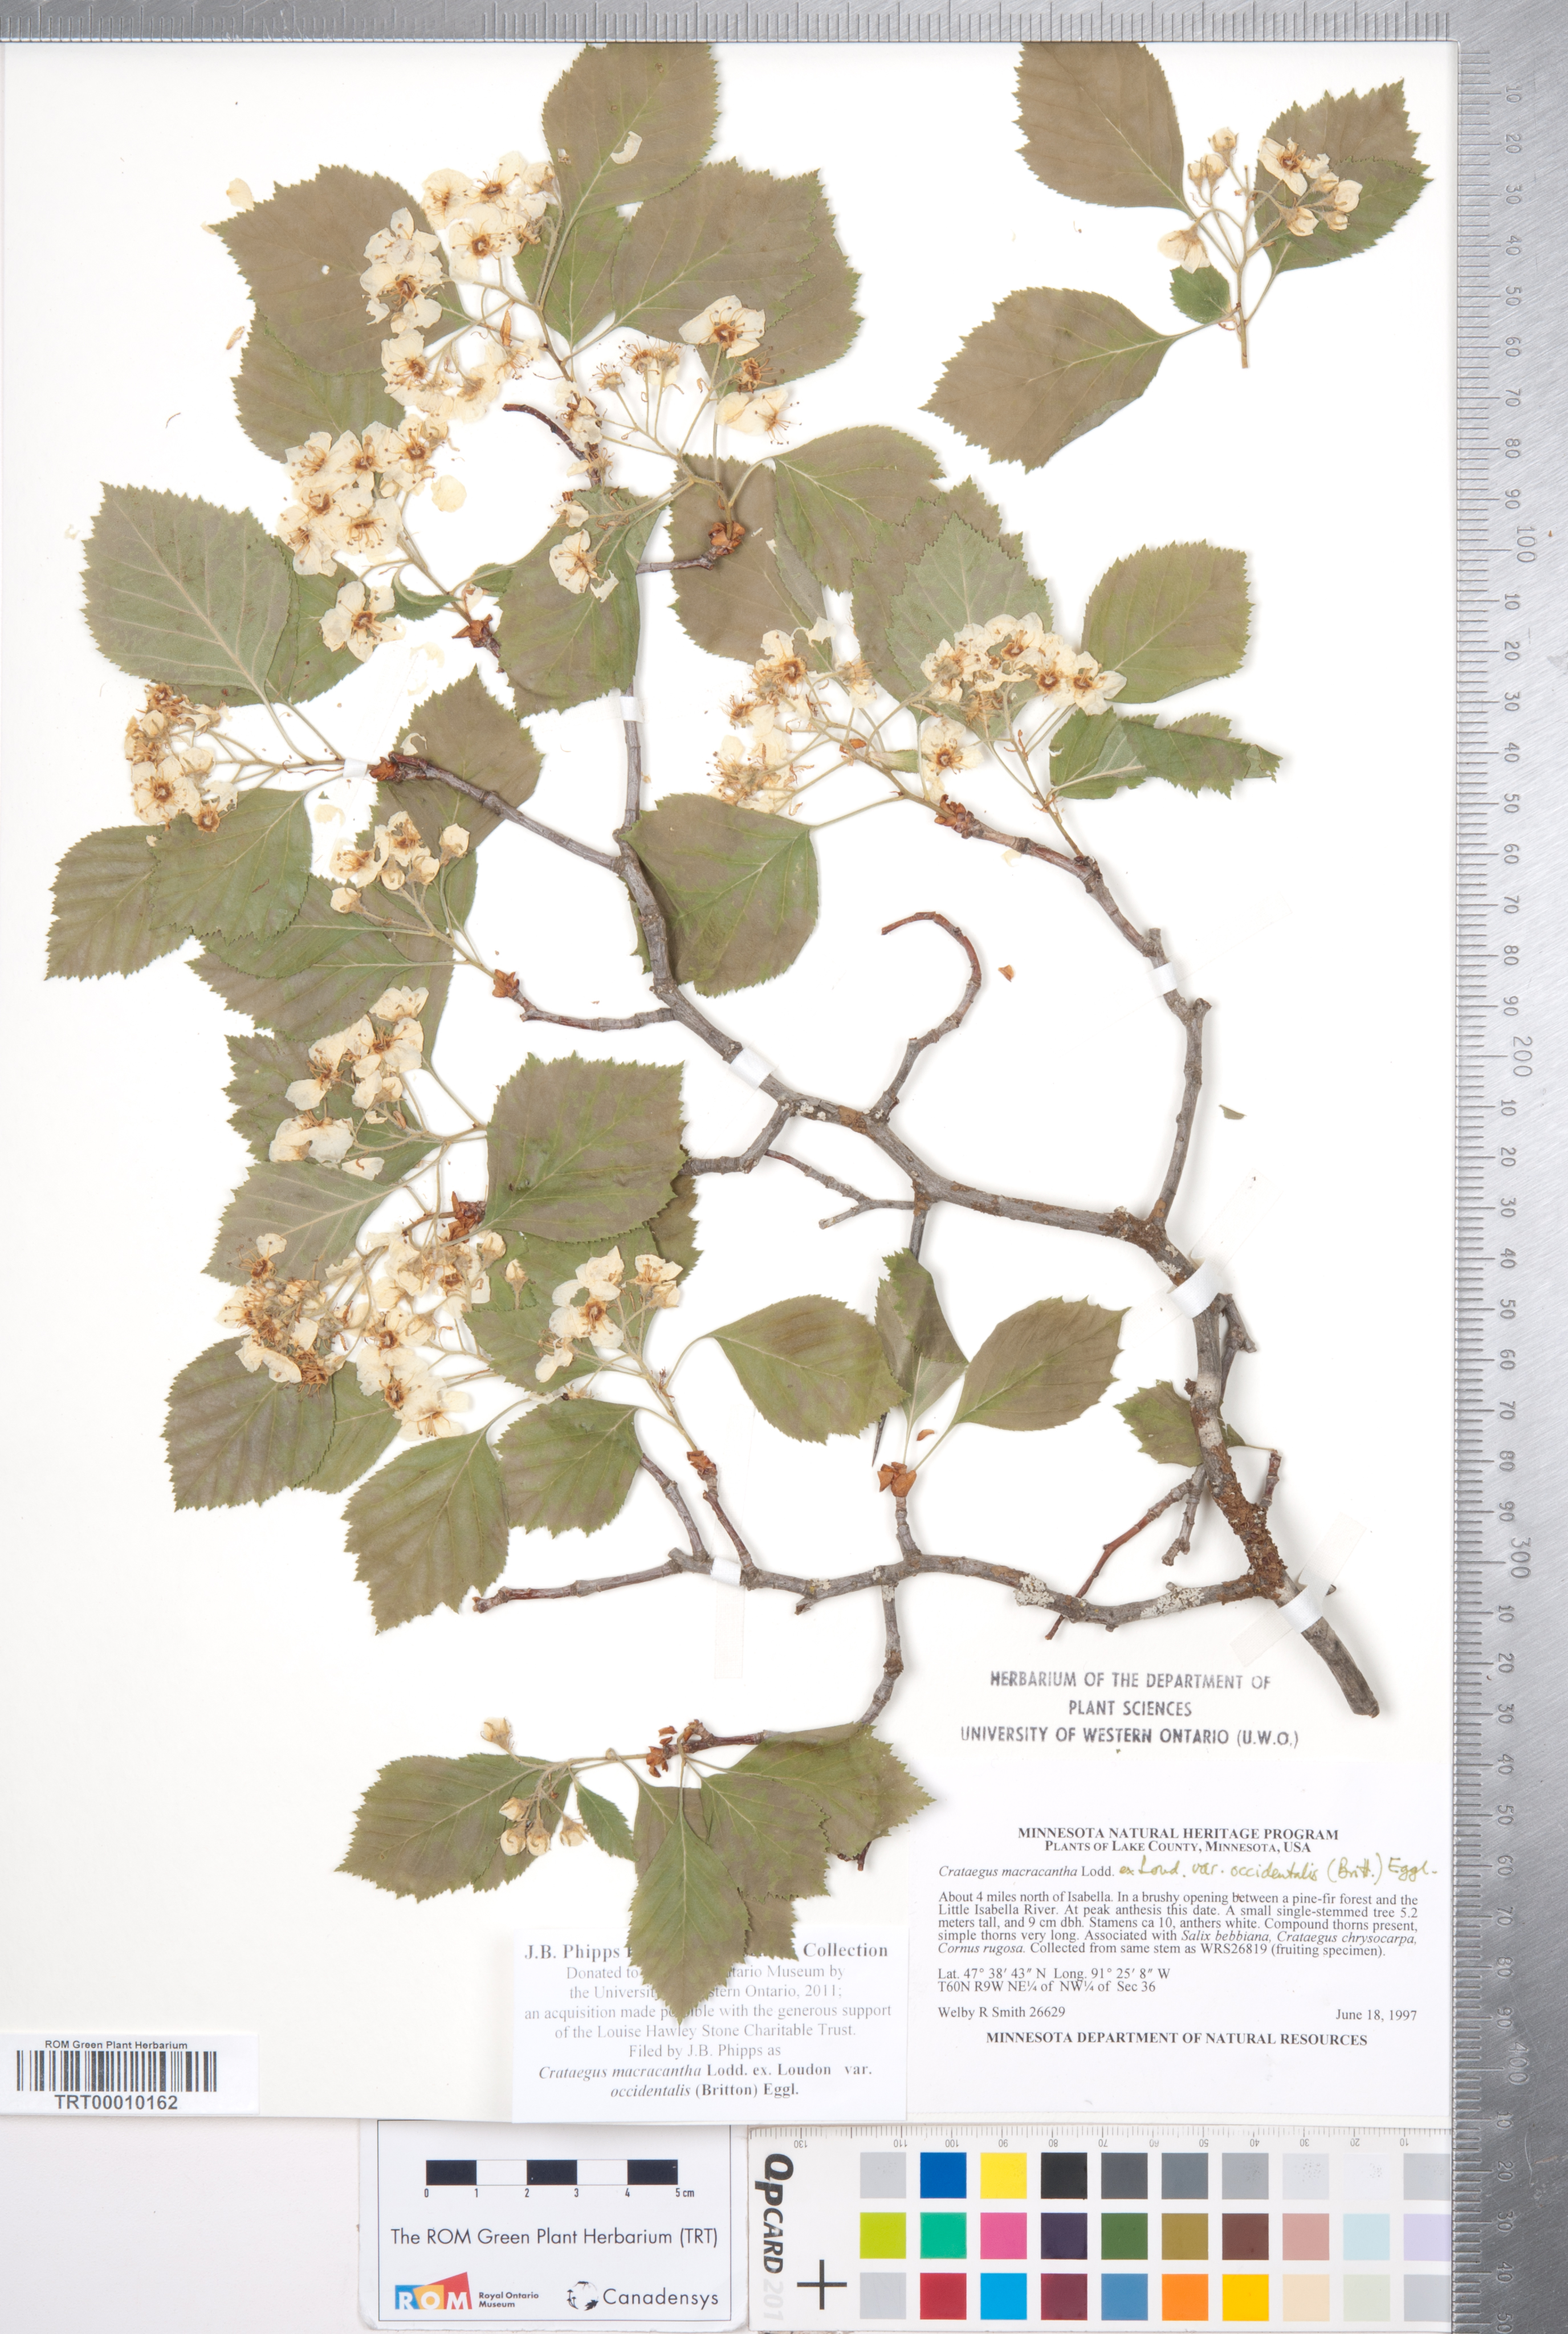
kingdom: Plantae
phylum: Tracheophyta
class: Magnoliopsida
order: Rosales
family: Rosaceae
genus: Crataegus
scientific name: Crataegus macracantha
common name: Large-thorn hawthorn
